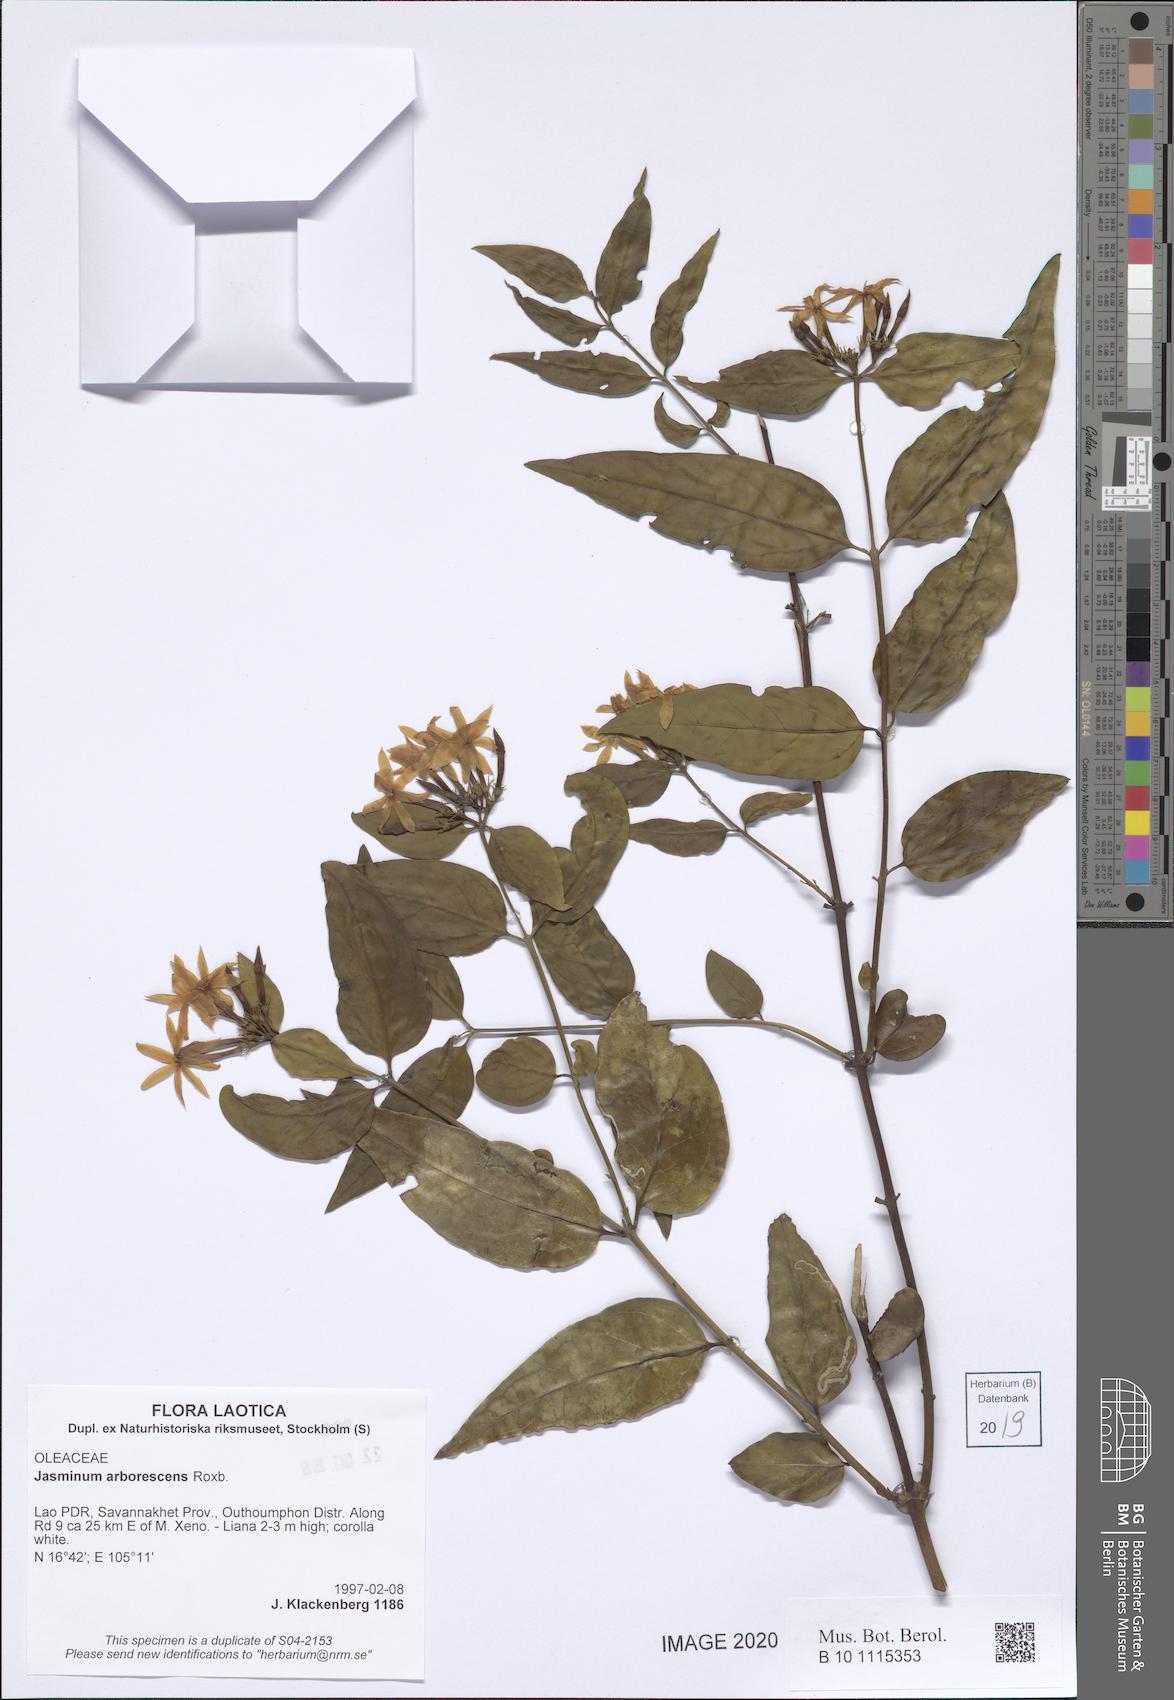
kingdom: Plantae
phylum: Tracheophyta
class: Magnoliopsida
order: Lamiales
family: Oleaceae
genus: Jasminum
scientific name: Jasminum arborescens
